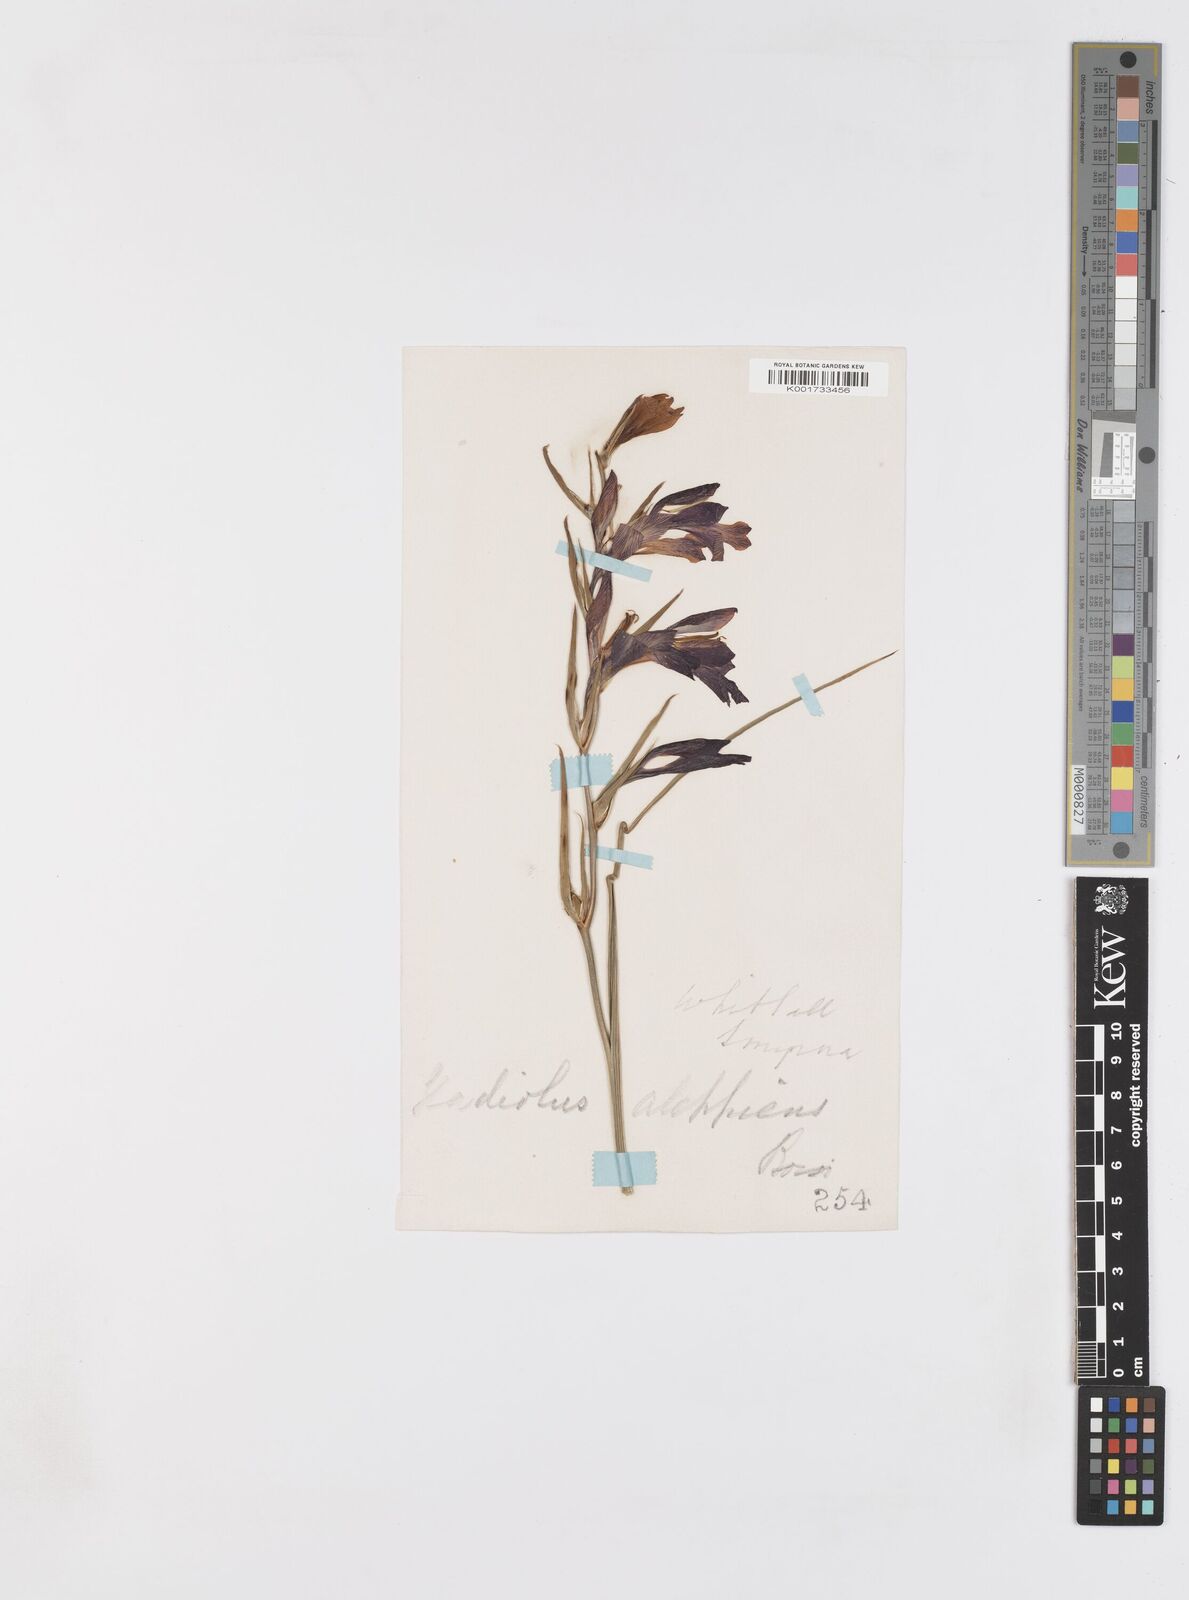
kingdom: Plantae
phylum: Tracheophyta
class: Liliopsida
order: Asparagales
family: Iridaceae
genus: Gladiolus
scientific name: Gladiolus atroviolaceus
